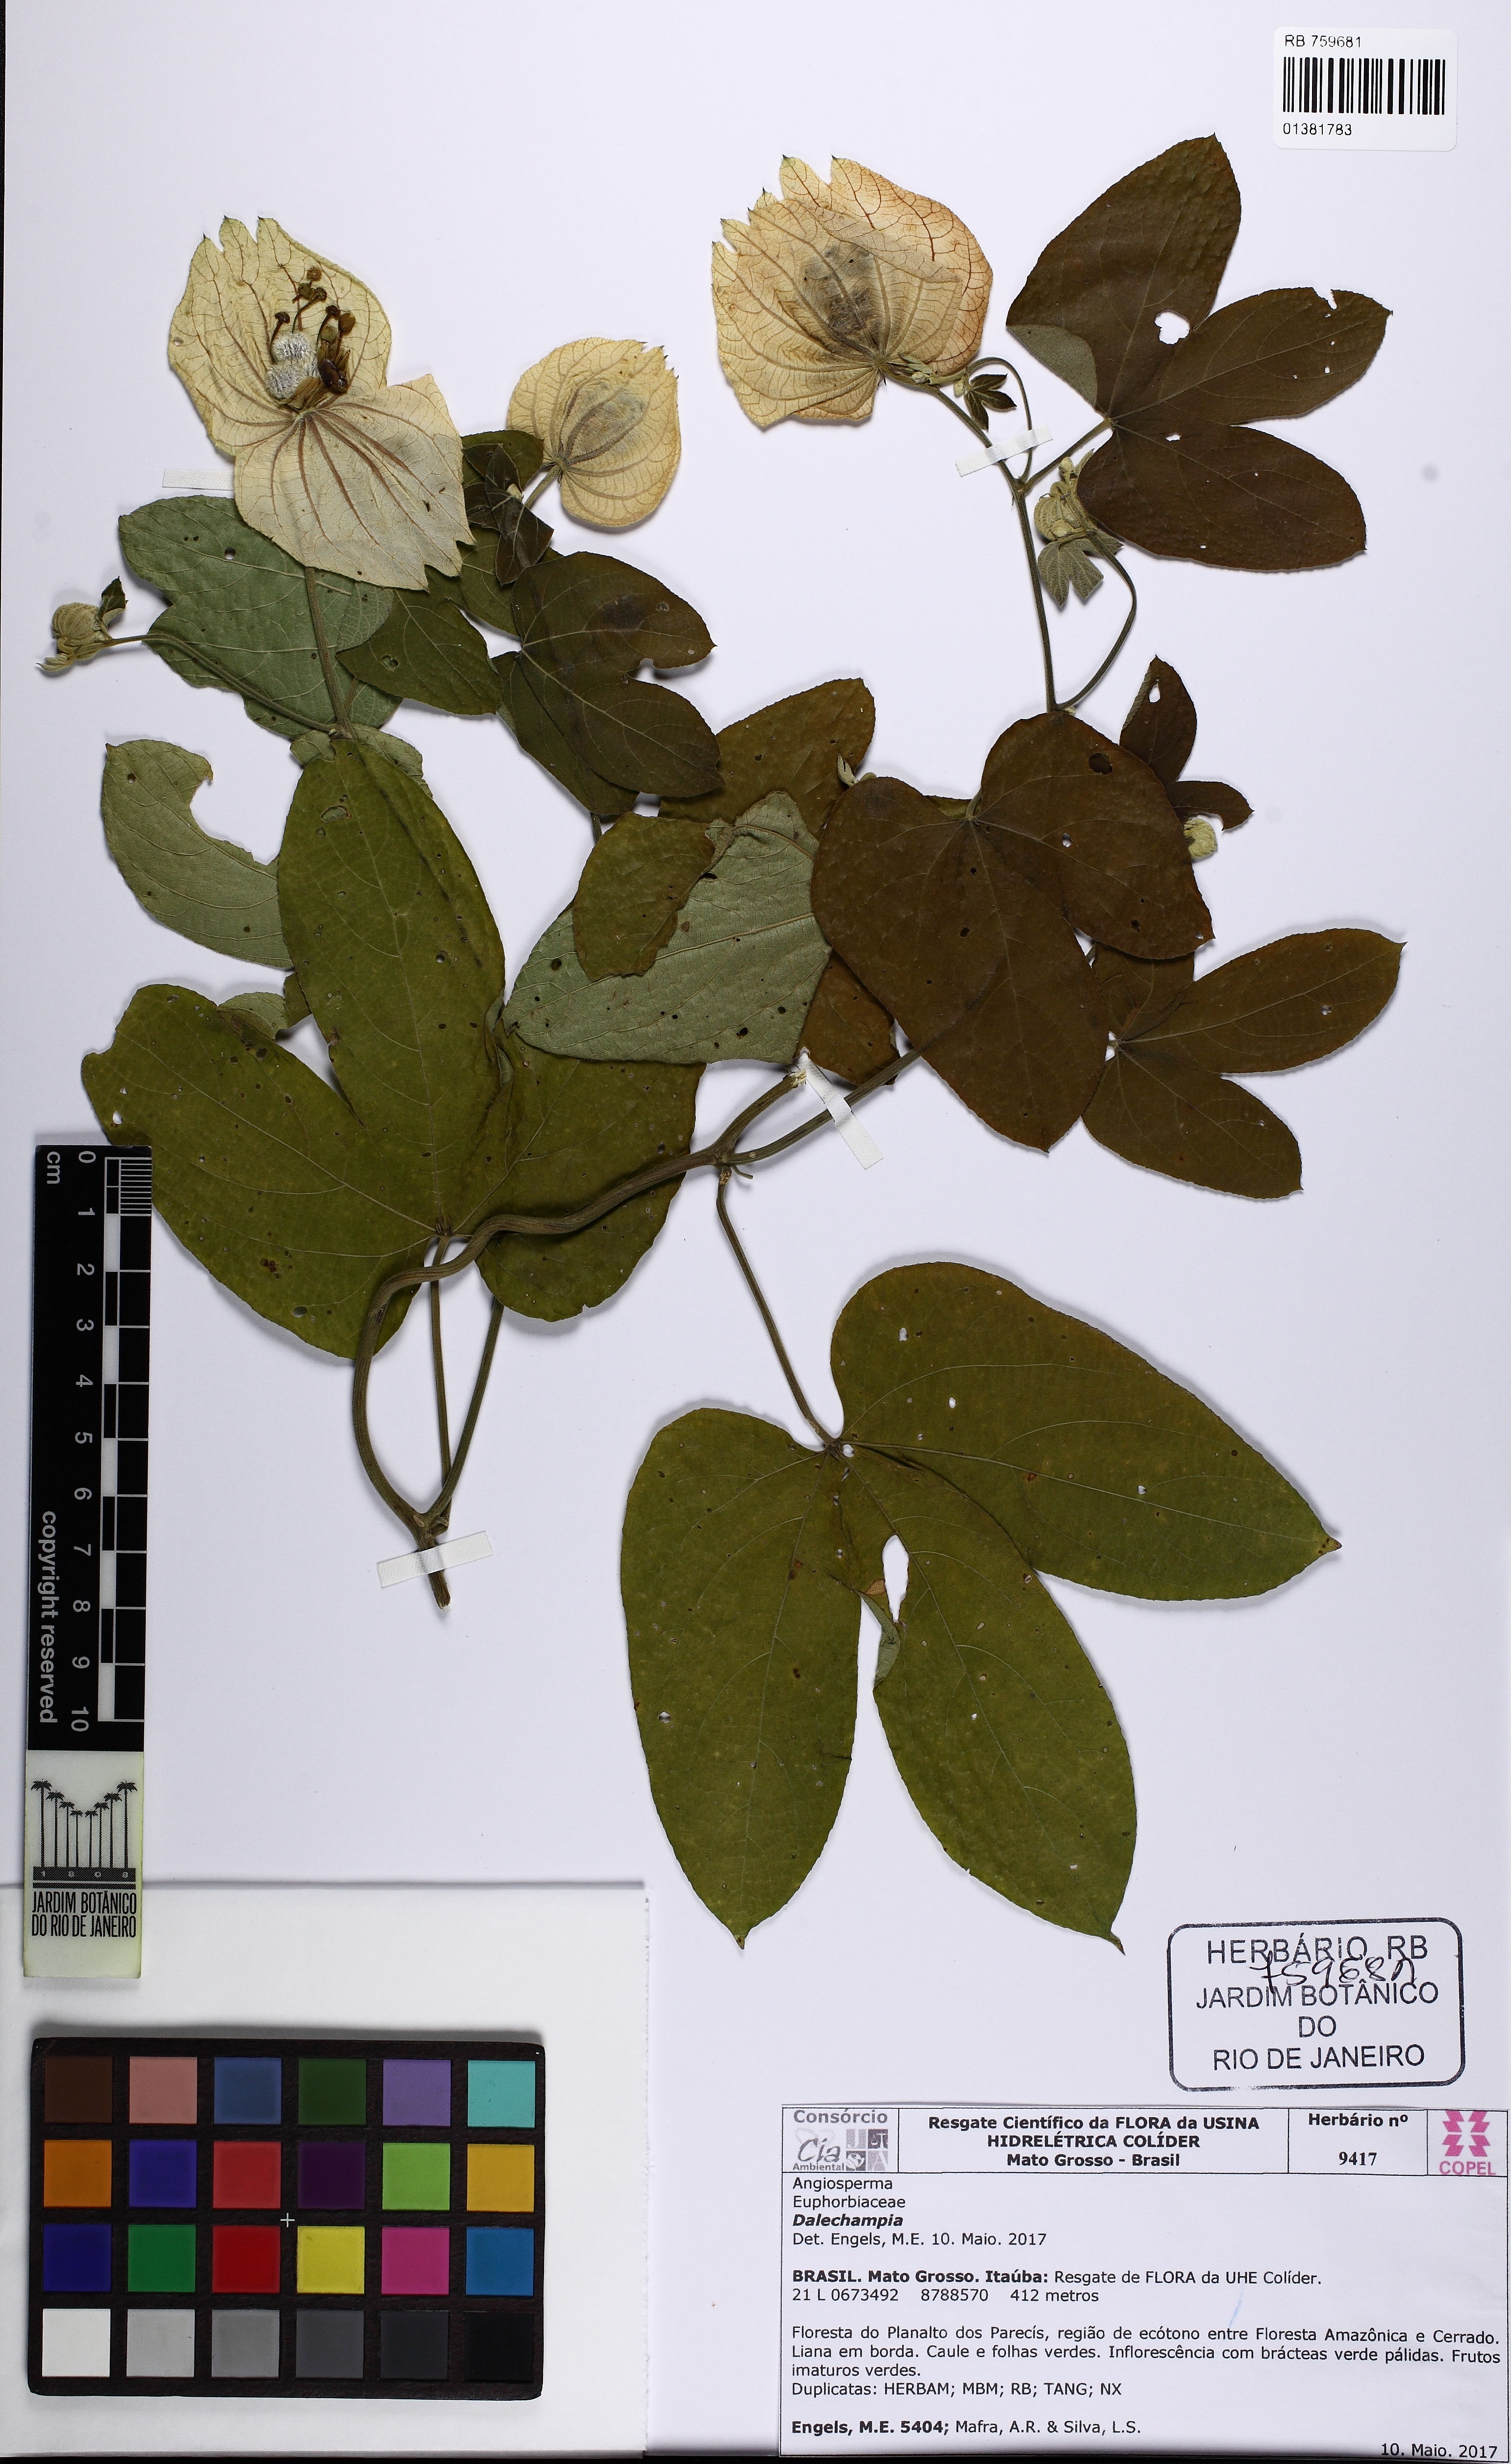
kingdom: Plantae
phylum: Tracheophyta
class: Magnoliopsida
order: Malpighiales
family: Euphorbiaceae
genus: Dalechampia
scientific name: Dalechampia tiliifolia
